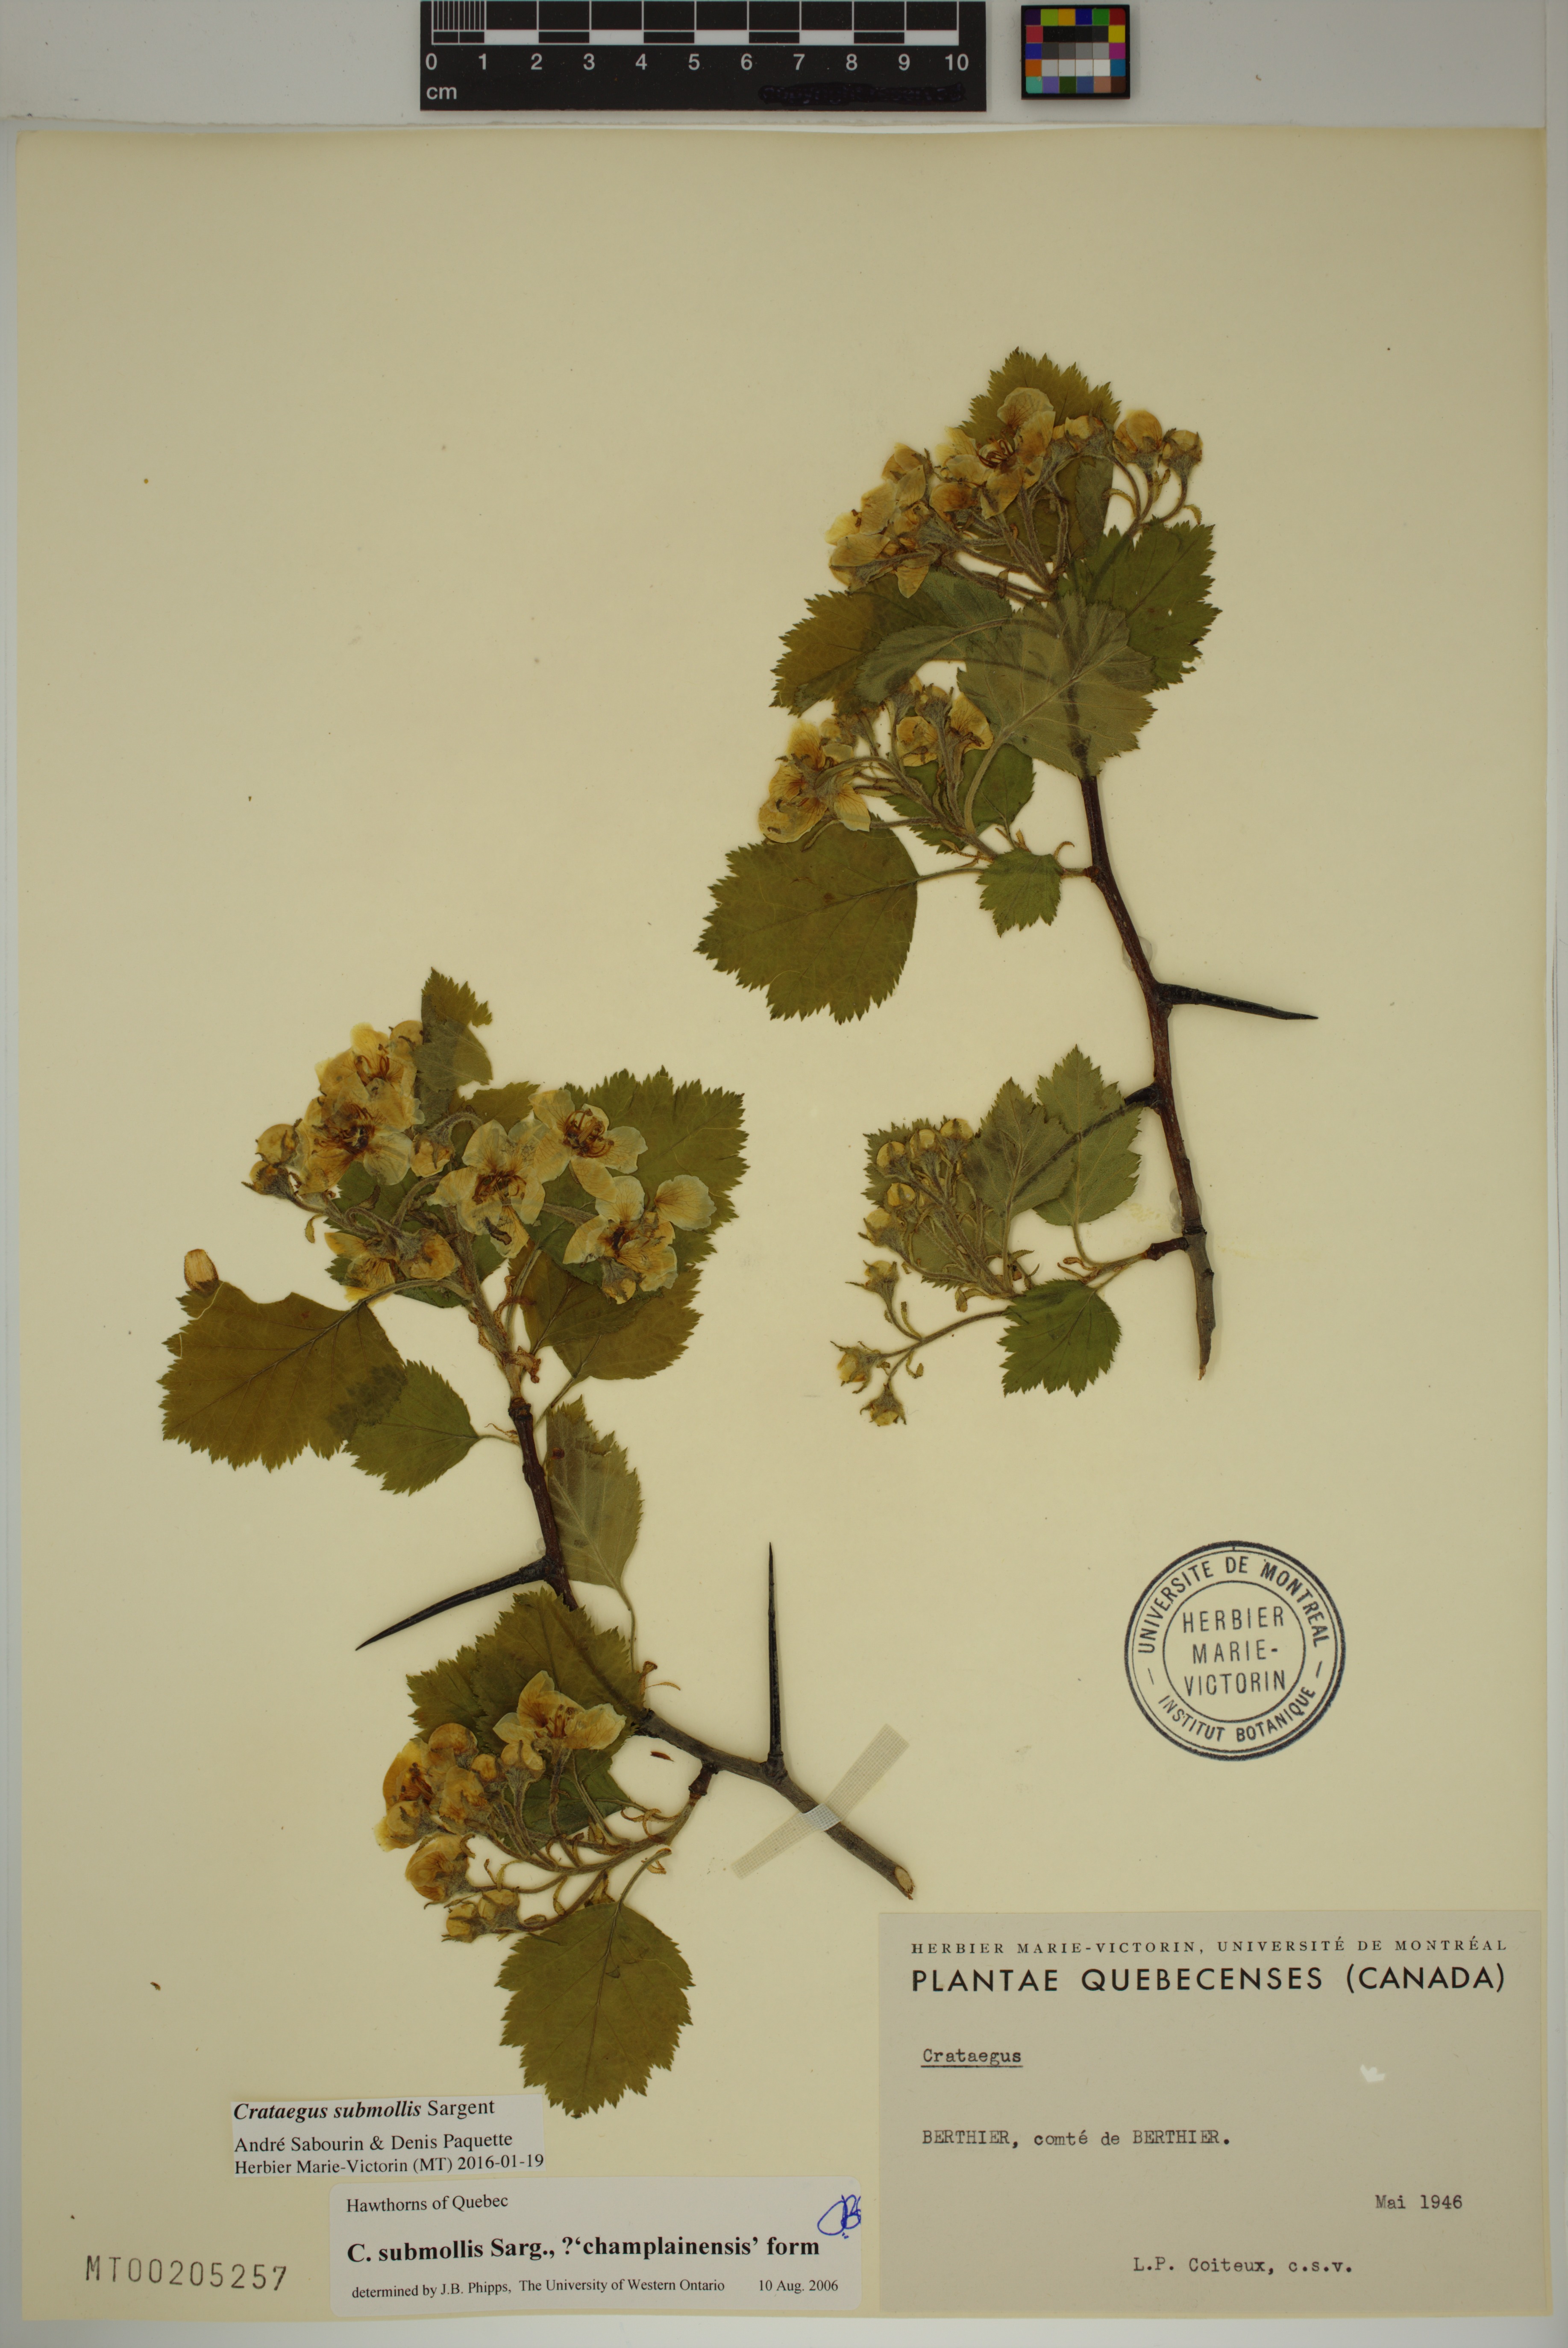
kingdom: Plantae
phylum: Tracheophyta
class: Magnoliopsida
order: Rosales
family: Rosaceae
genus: Crataegus
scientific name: Crataegus submollis
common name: Hairy cockspurthorn
